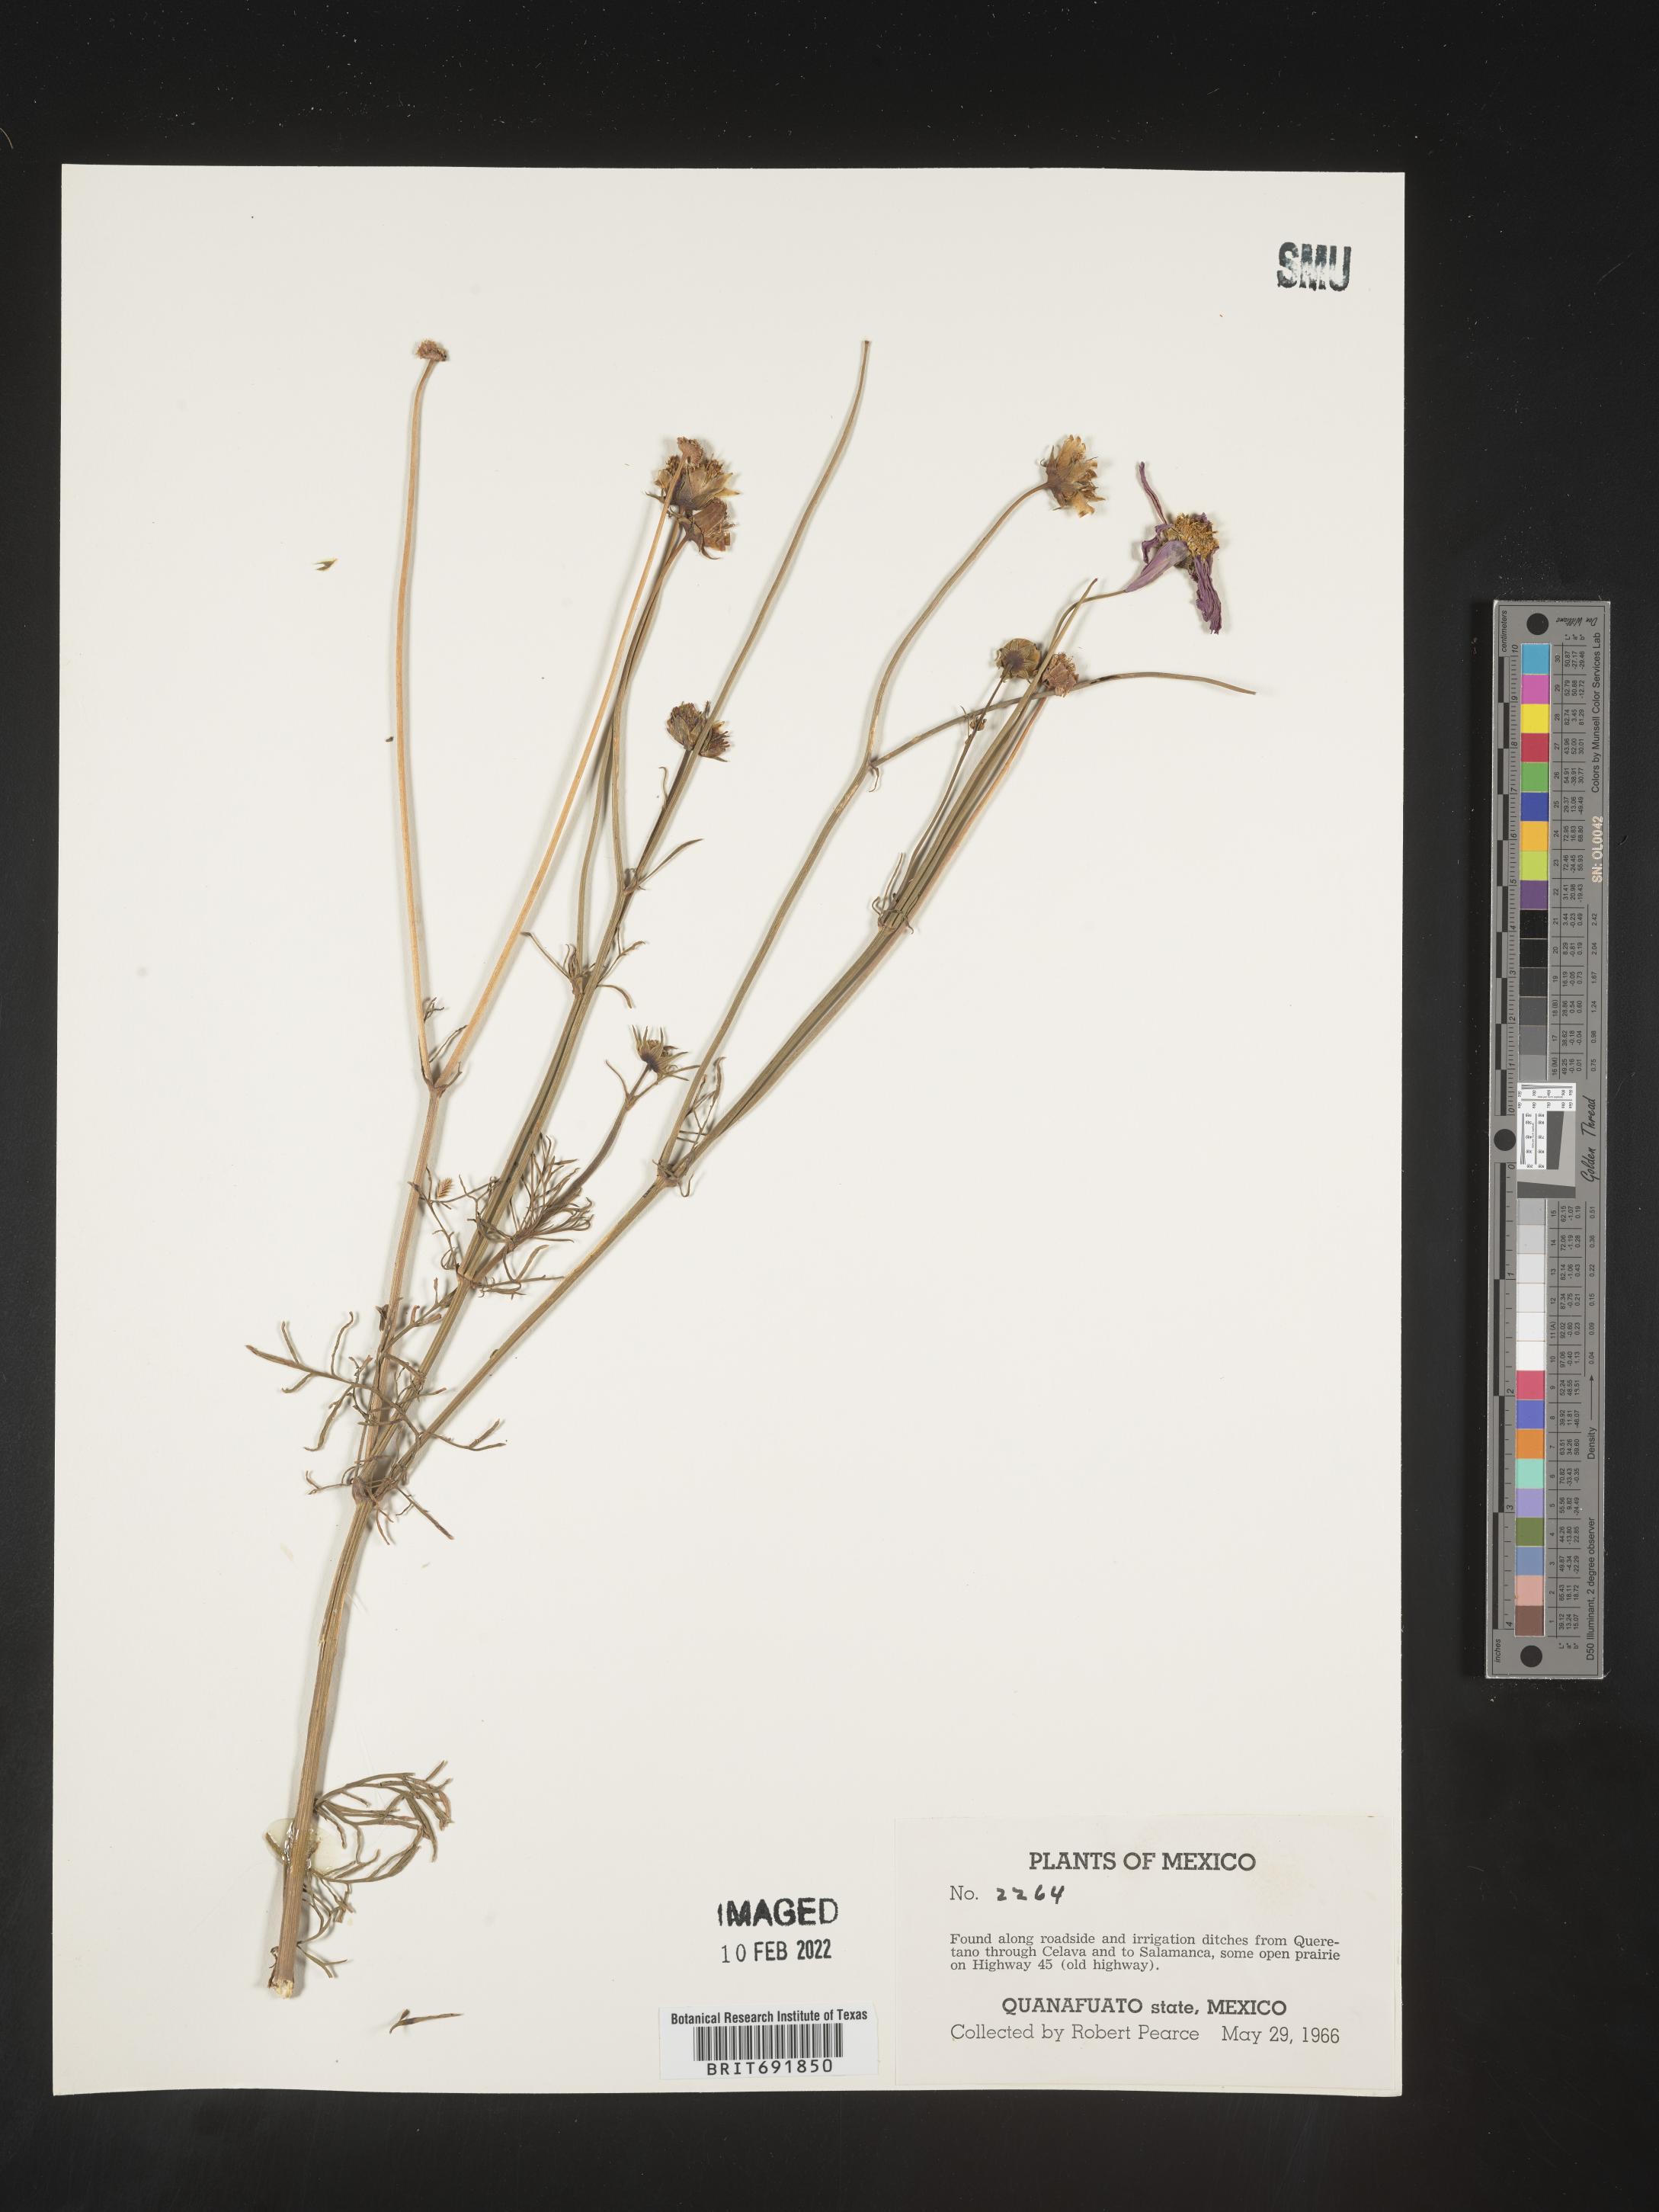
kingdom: Plantae
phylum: Tracheophyta
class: Magnoliopsida
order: Asterales
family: Asteraceae
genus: Cosmos
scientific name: Cosmos
